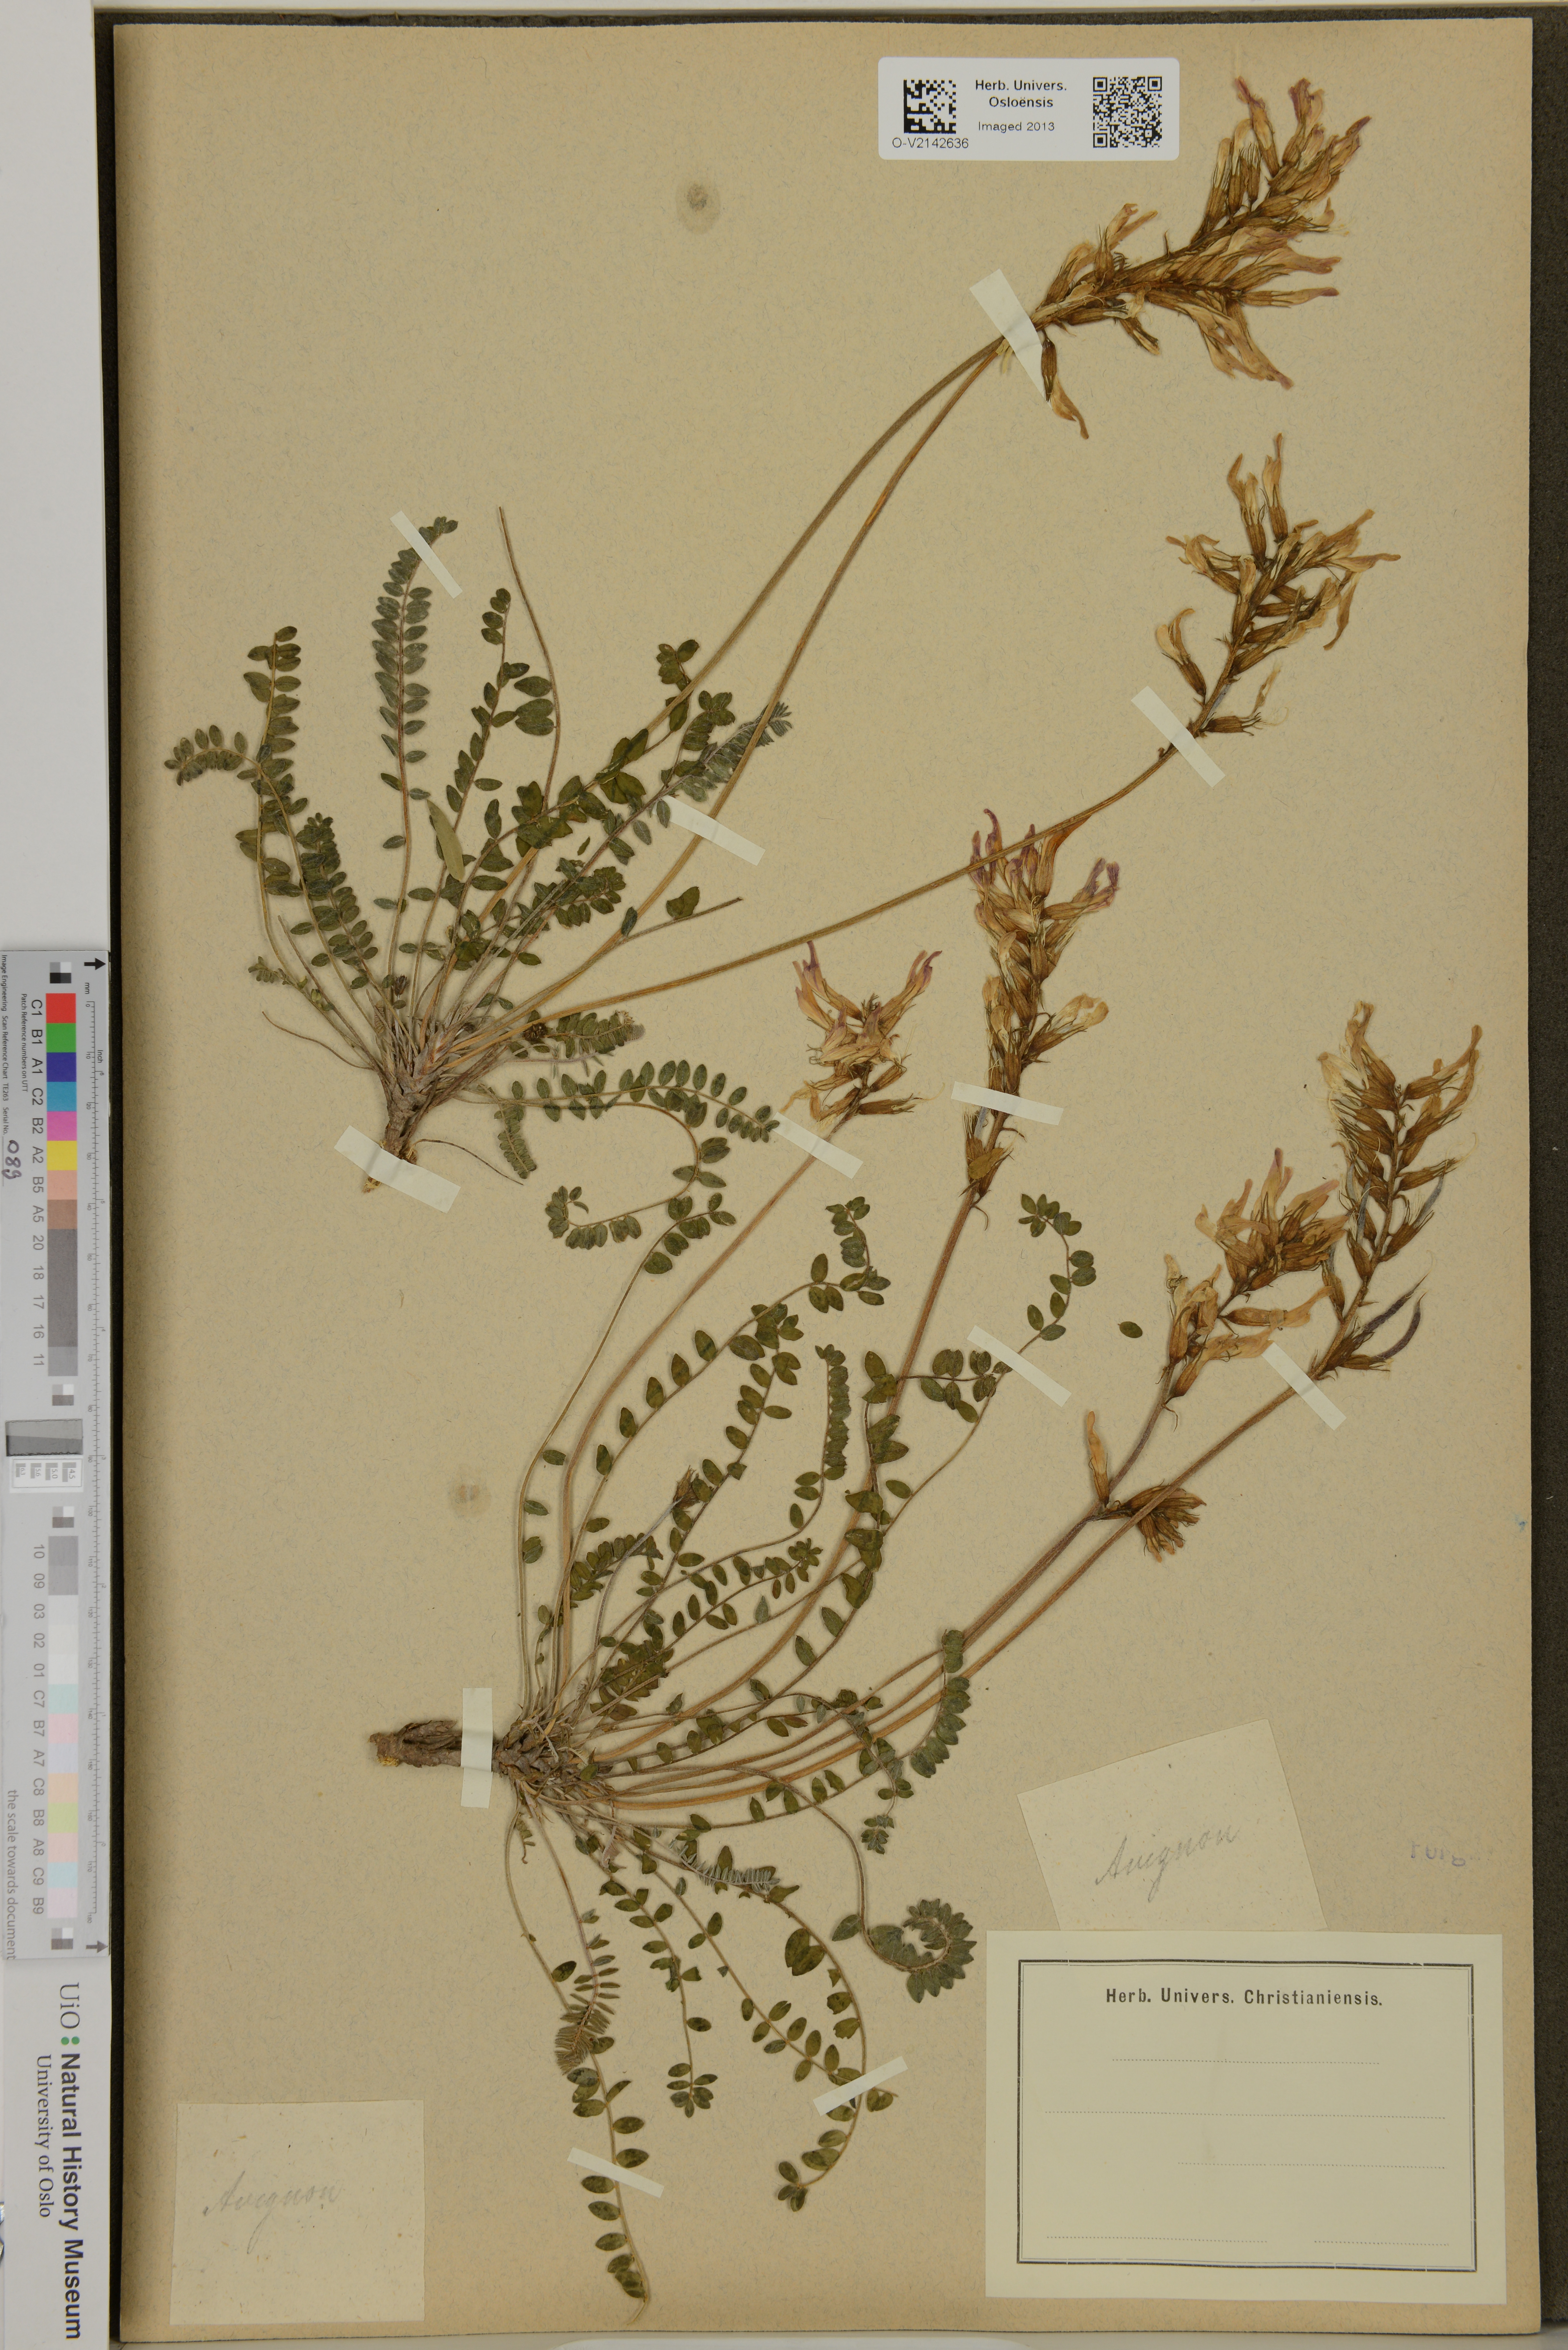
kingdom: Plantae
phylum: Tracheophyta
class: Magnoliopsida
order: Fabales
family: Fabaceae
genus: Astragalus
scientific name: Astragalus
